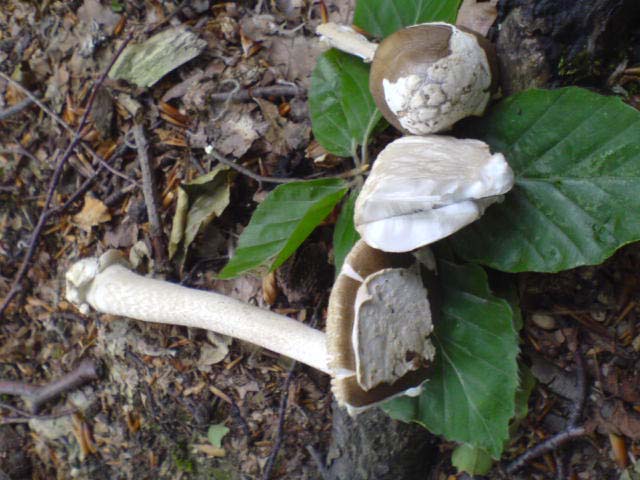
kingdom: Fungi
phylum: Basidiomycota
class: Agaricomycetes
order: Agaricales
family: Amanitaceae
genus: Amanita
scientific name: Amanita
